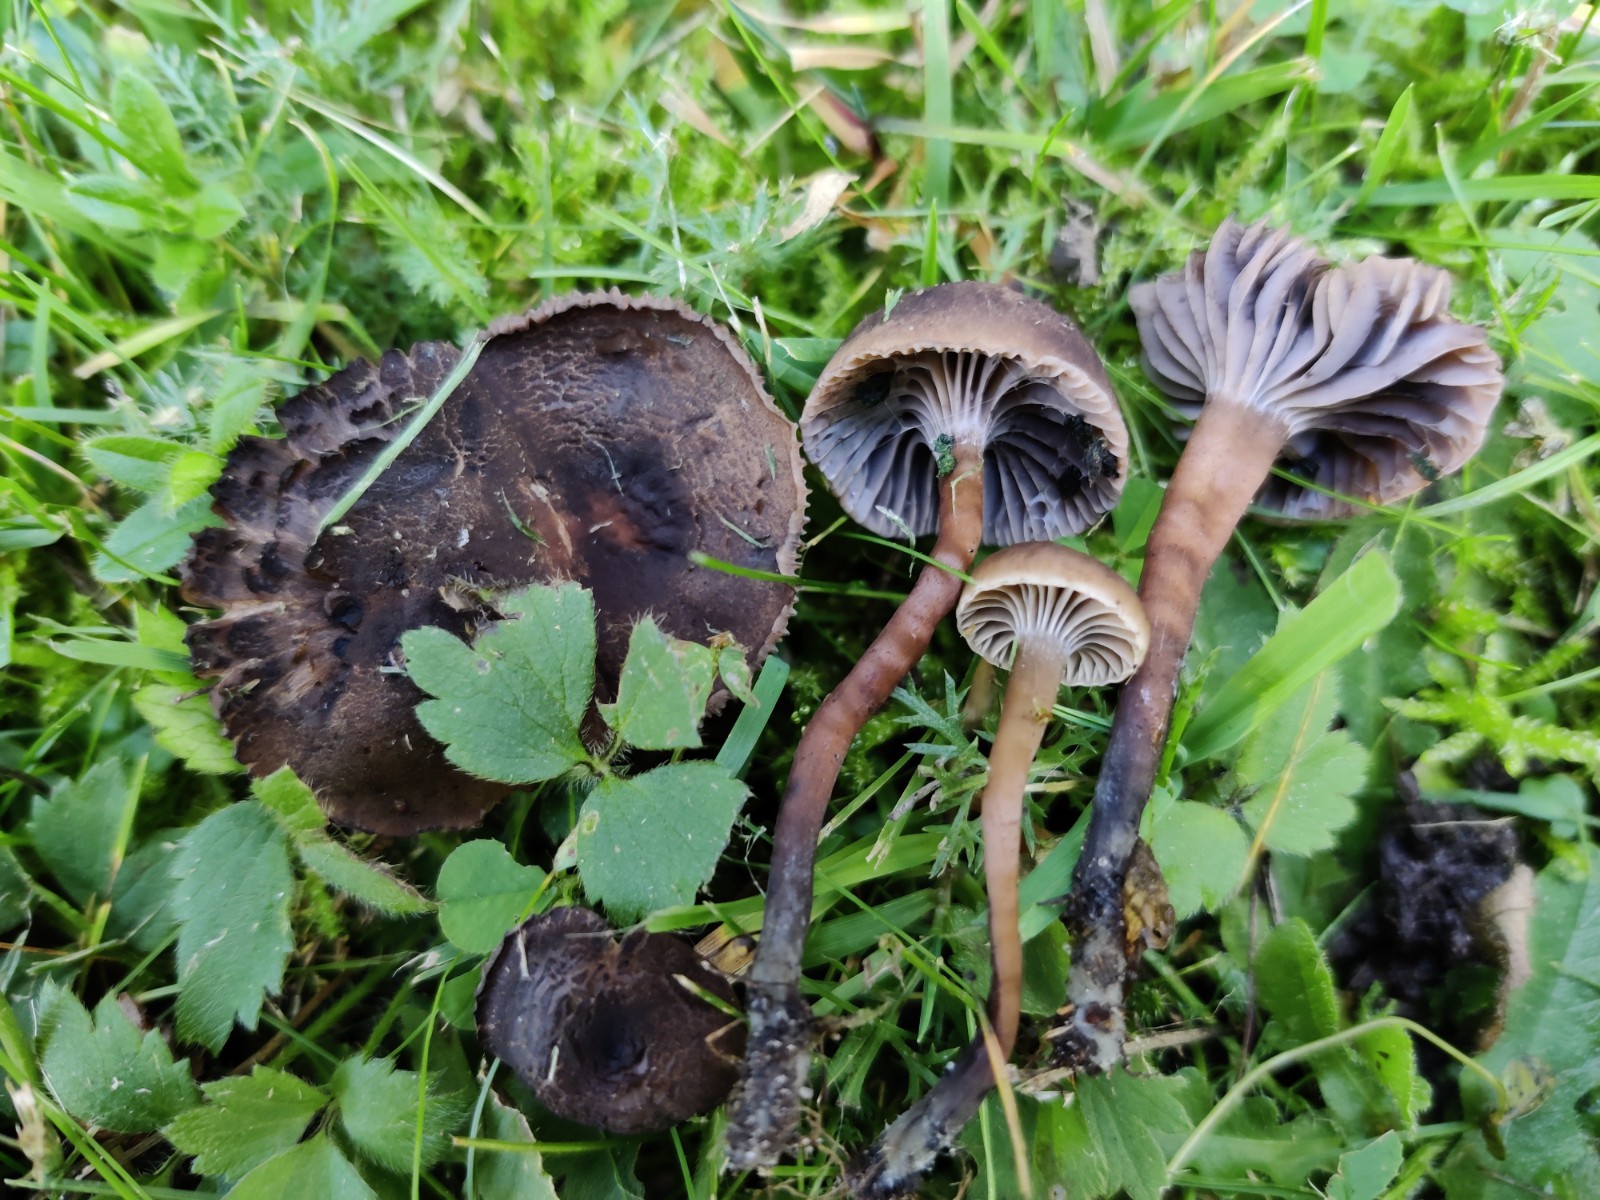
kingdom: Fungi
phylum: Basidiomycota
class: Agaricomycetes
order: Agaricales
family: Clavariaceae
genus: Hodophilus
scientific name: Hodophilus foetens
